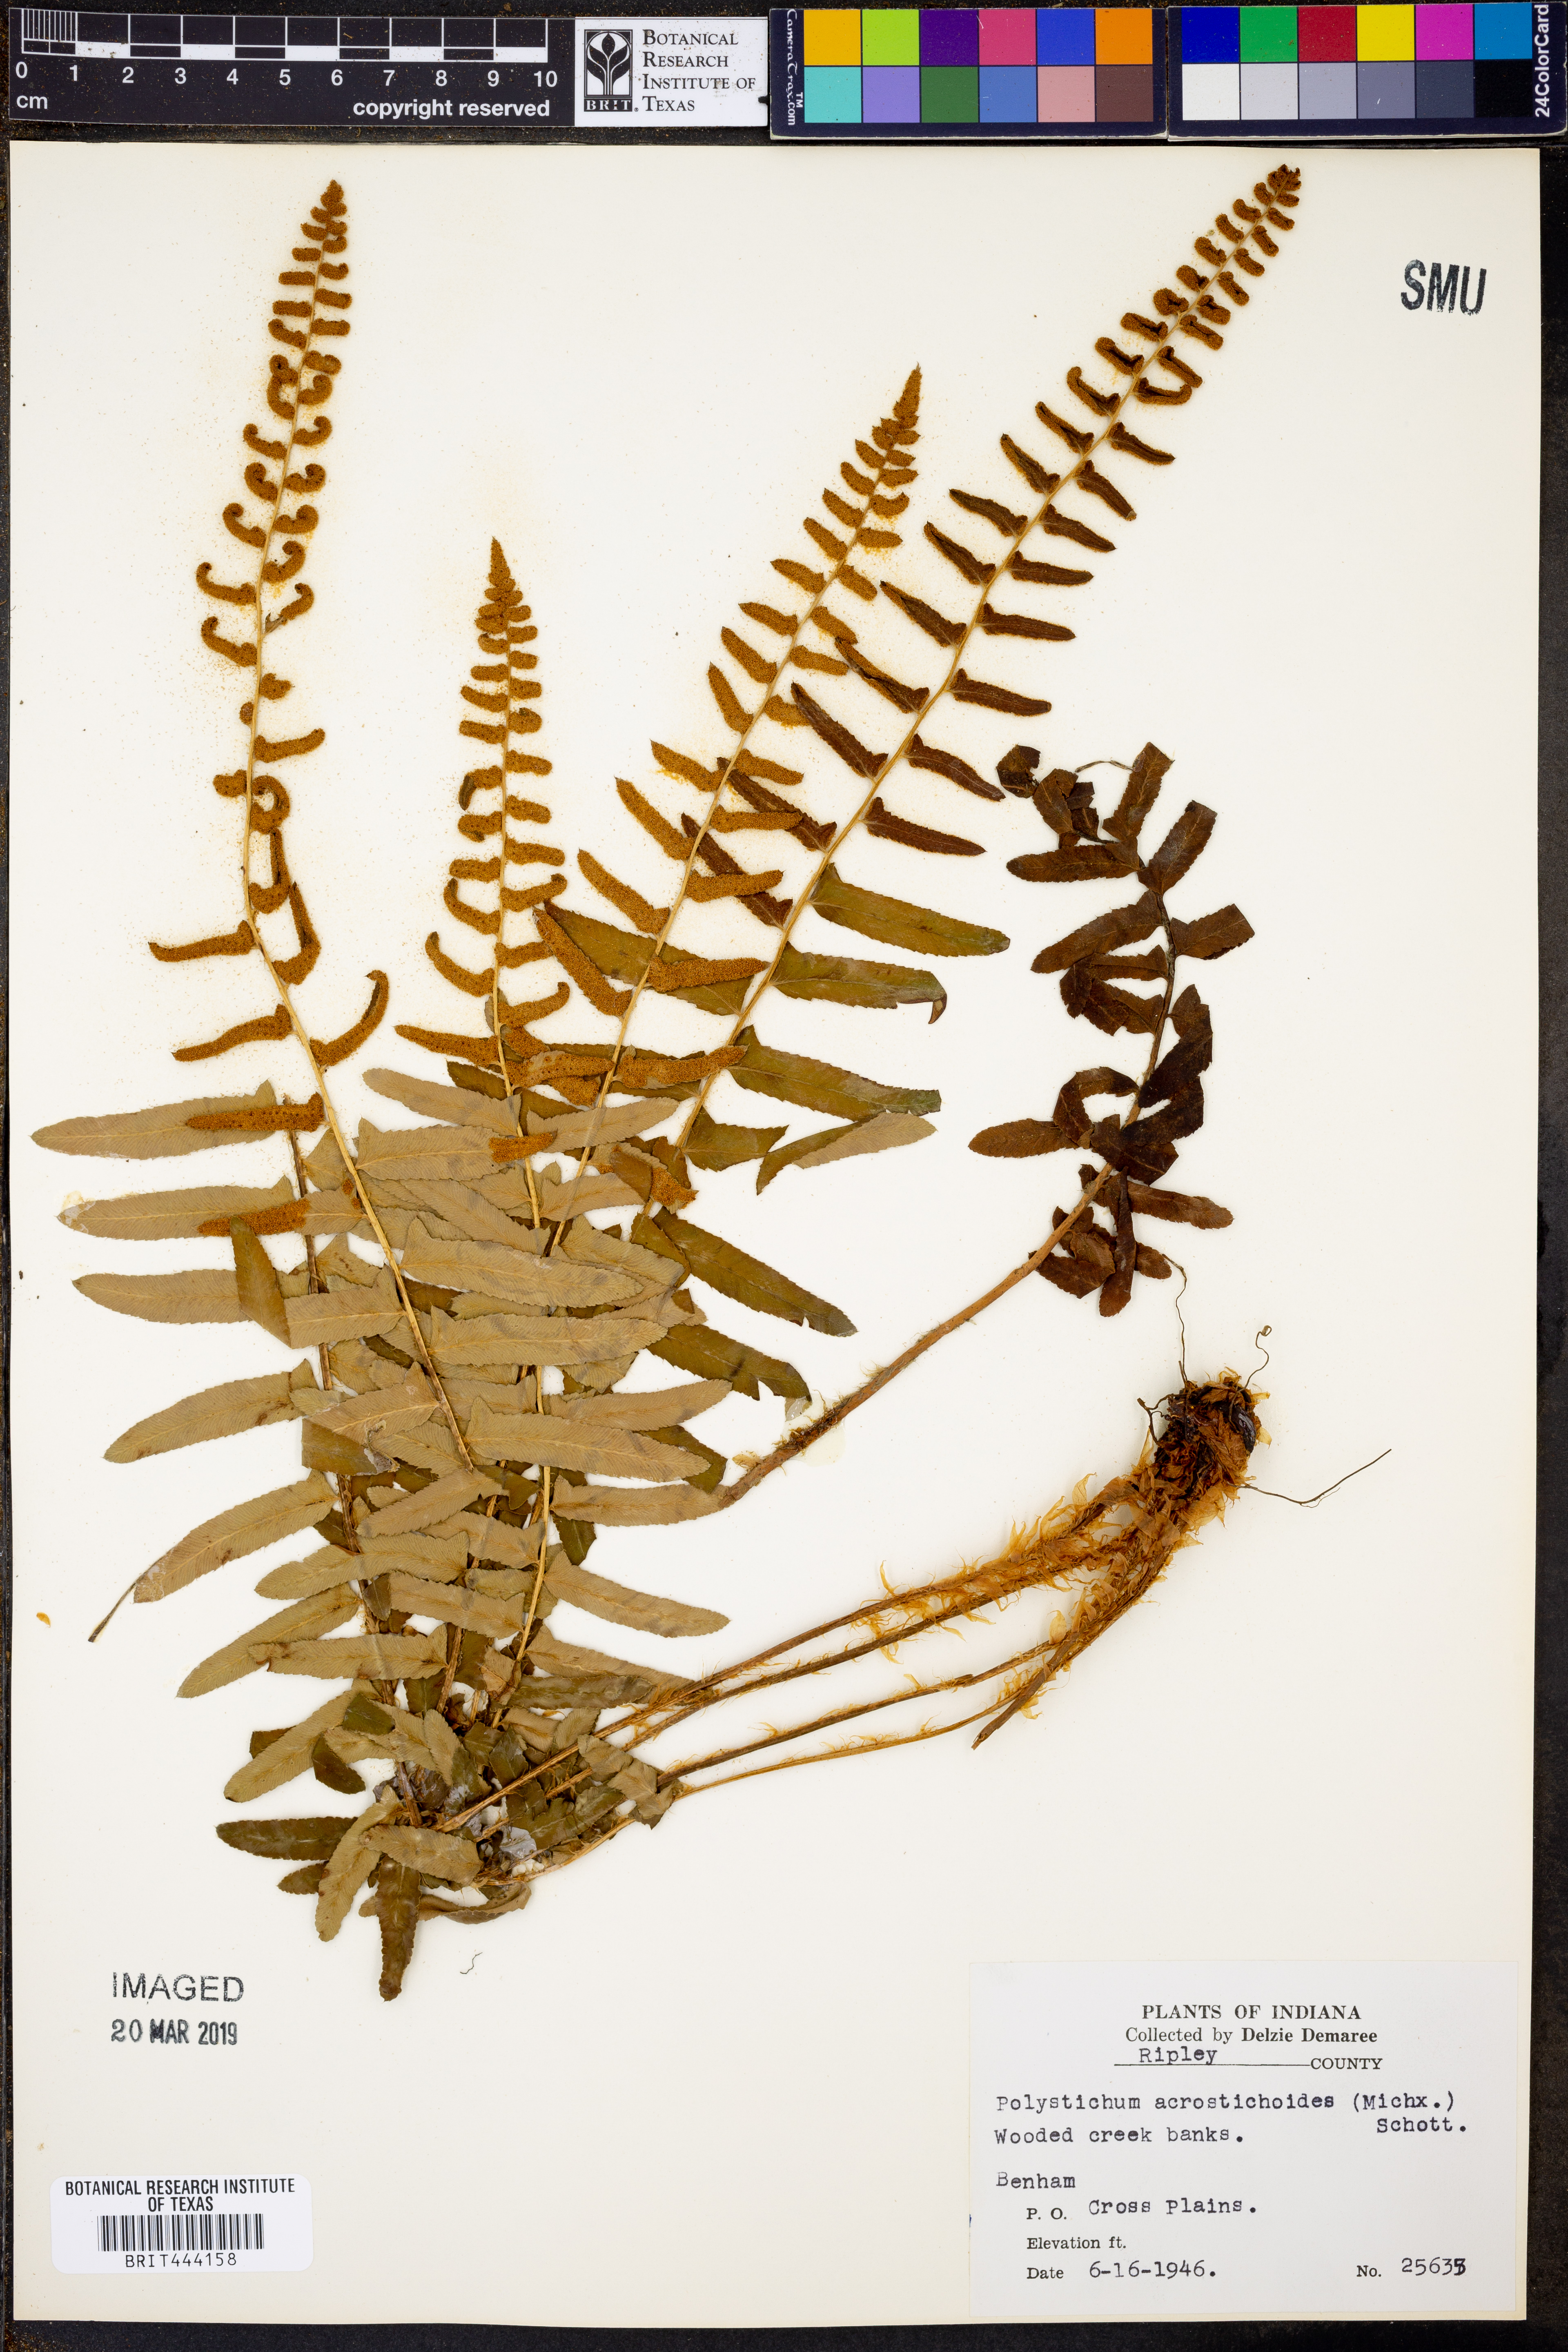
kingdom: Plantae
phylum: Tracheophyta
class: Polypodiopsida
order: Polypodiales
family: Dryopteridaceae
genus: Polystichum
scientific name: Polystichum acrostichoides
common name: Christmas fern
